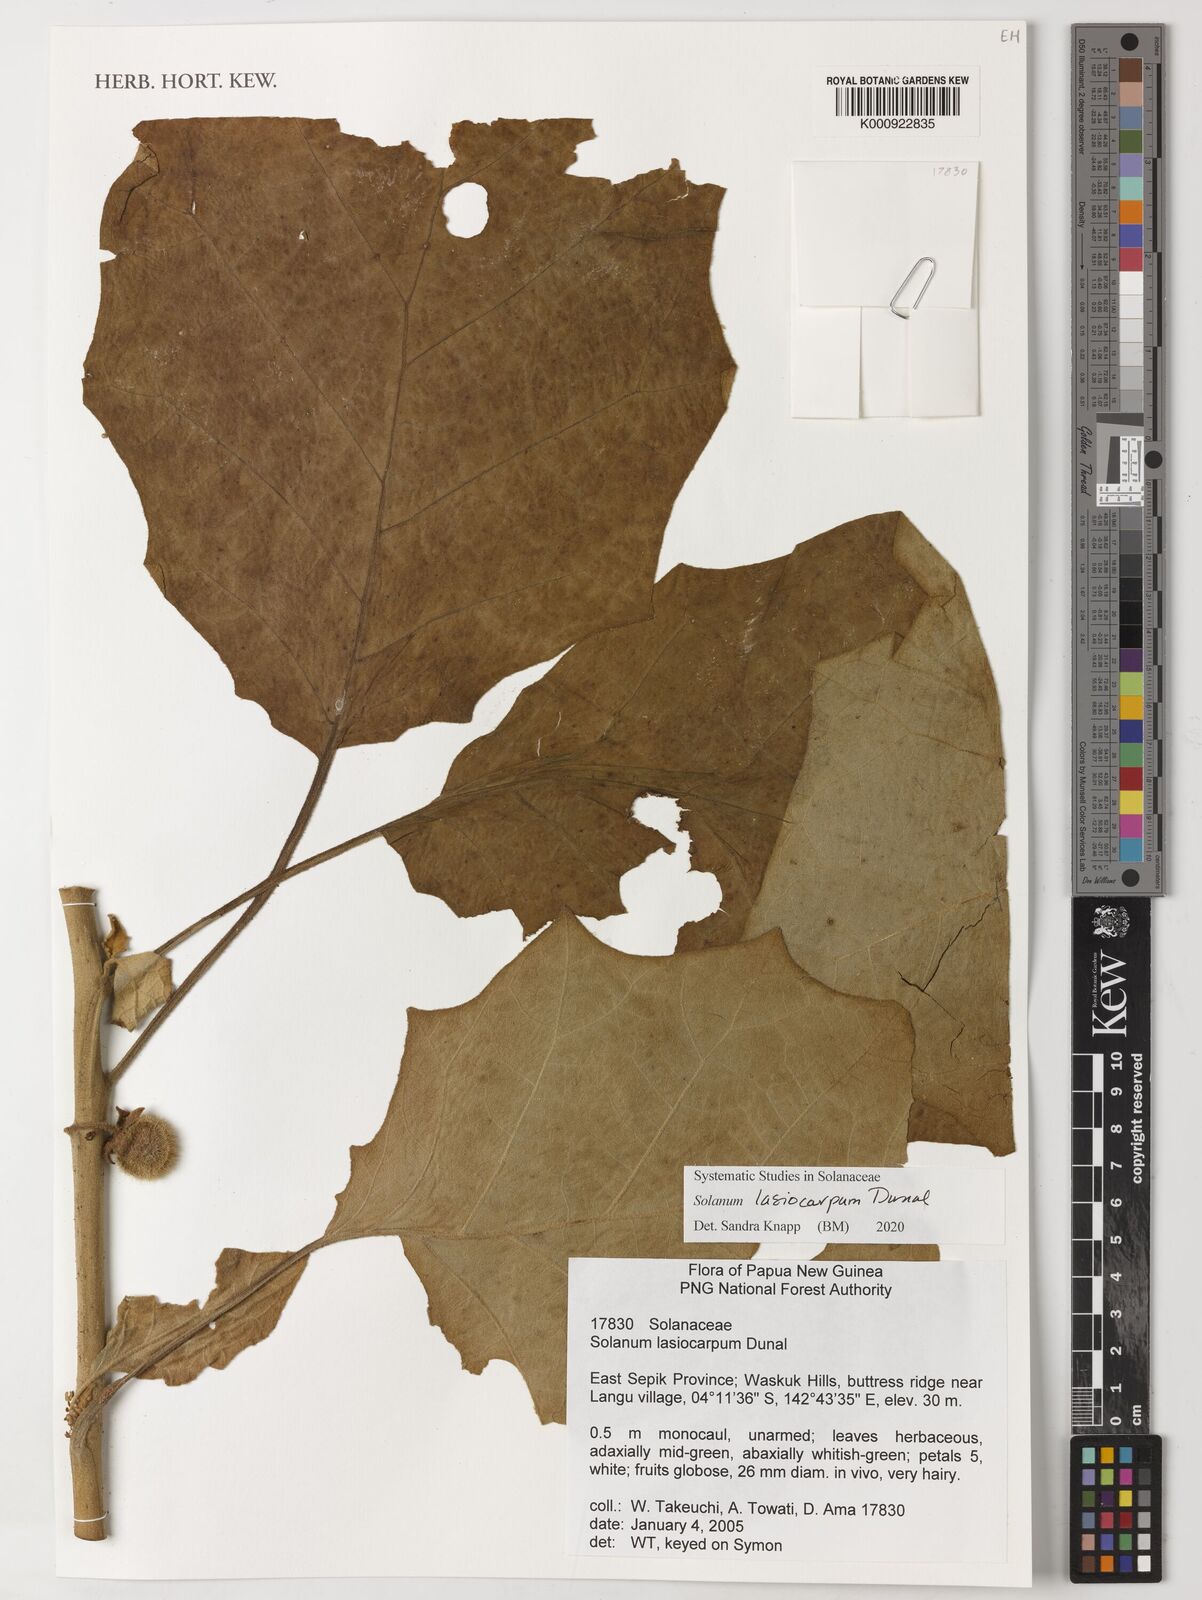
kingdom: Plantae
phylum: Tracheophyta
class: Magnoliopsida
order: Solanales
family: Solanaceae
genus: Solanum
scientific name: Solanum lasiocarpum
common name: Indian nightshade
